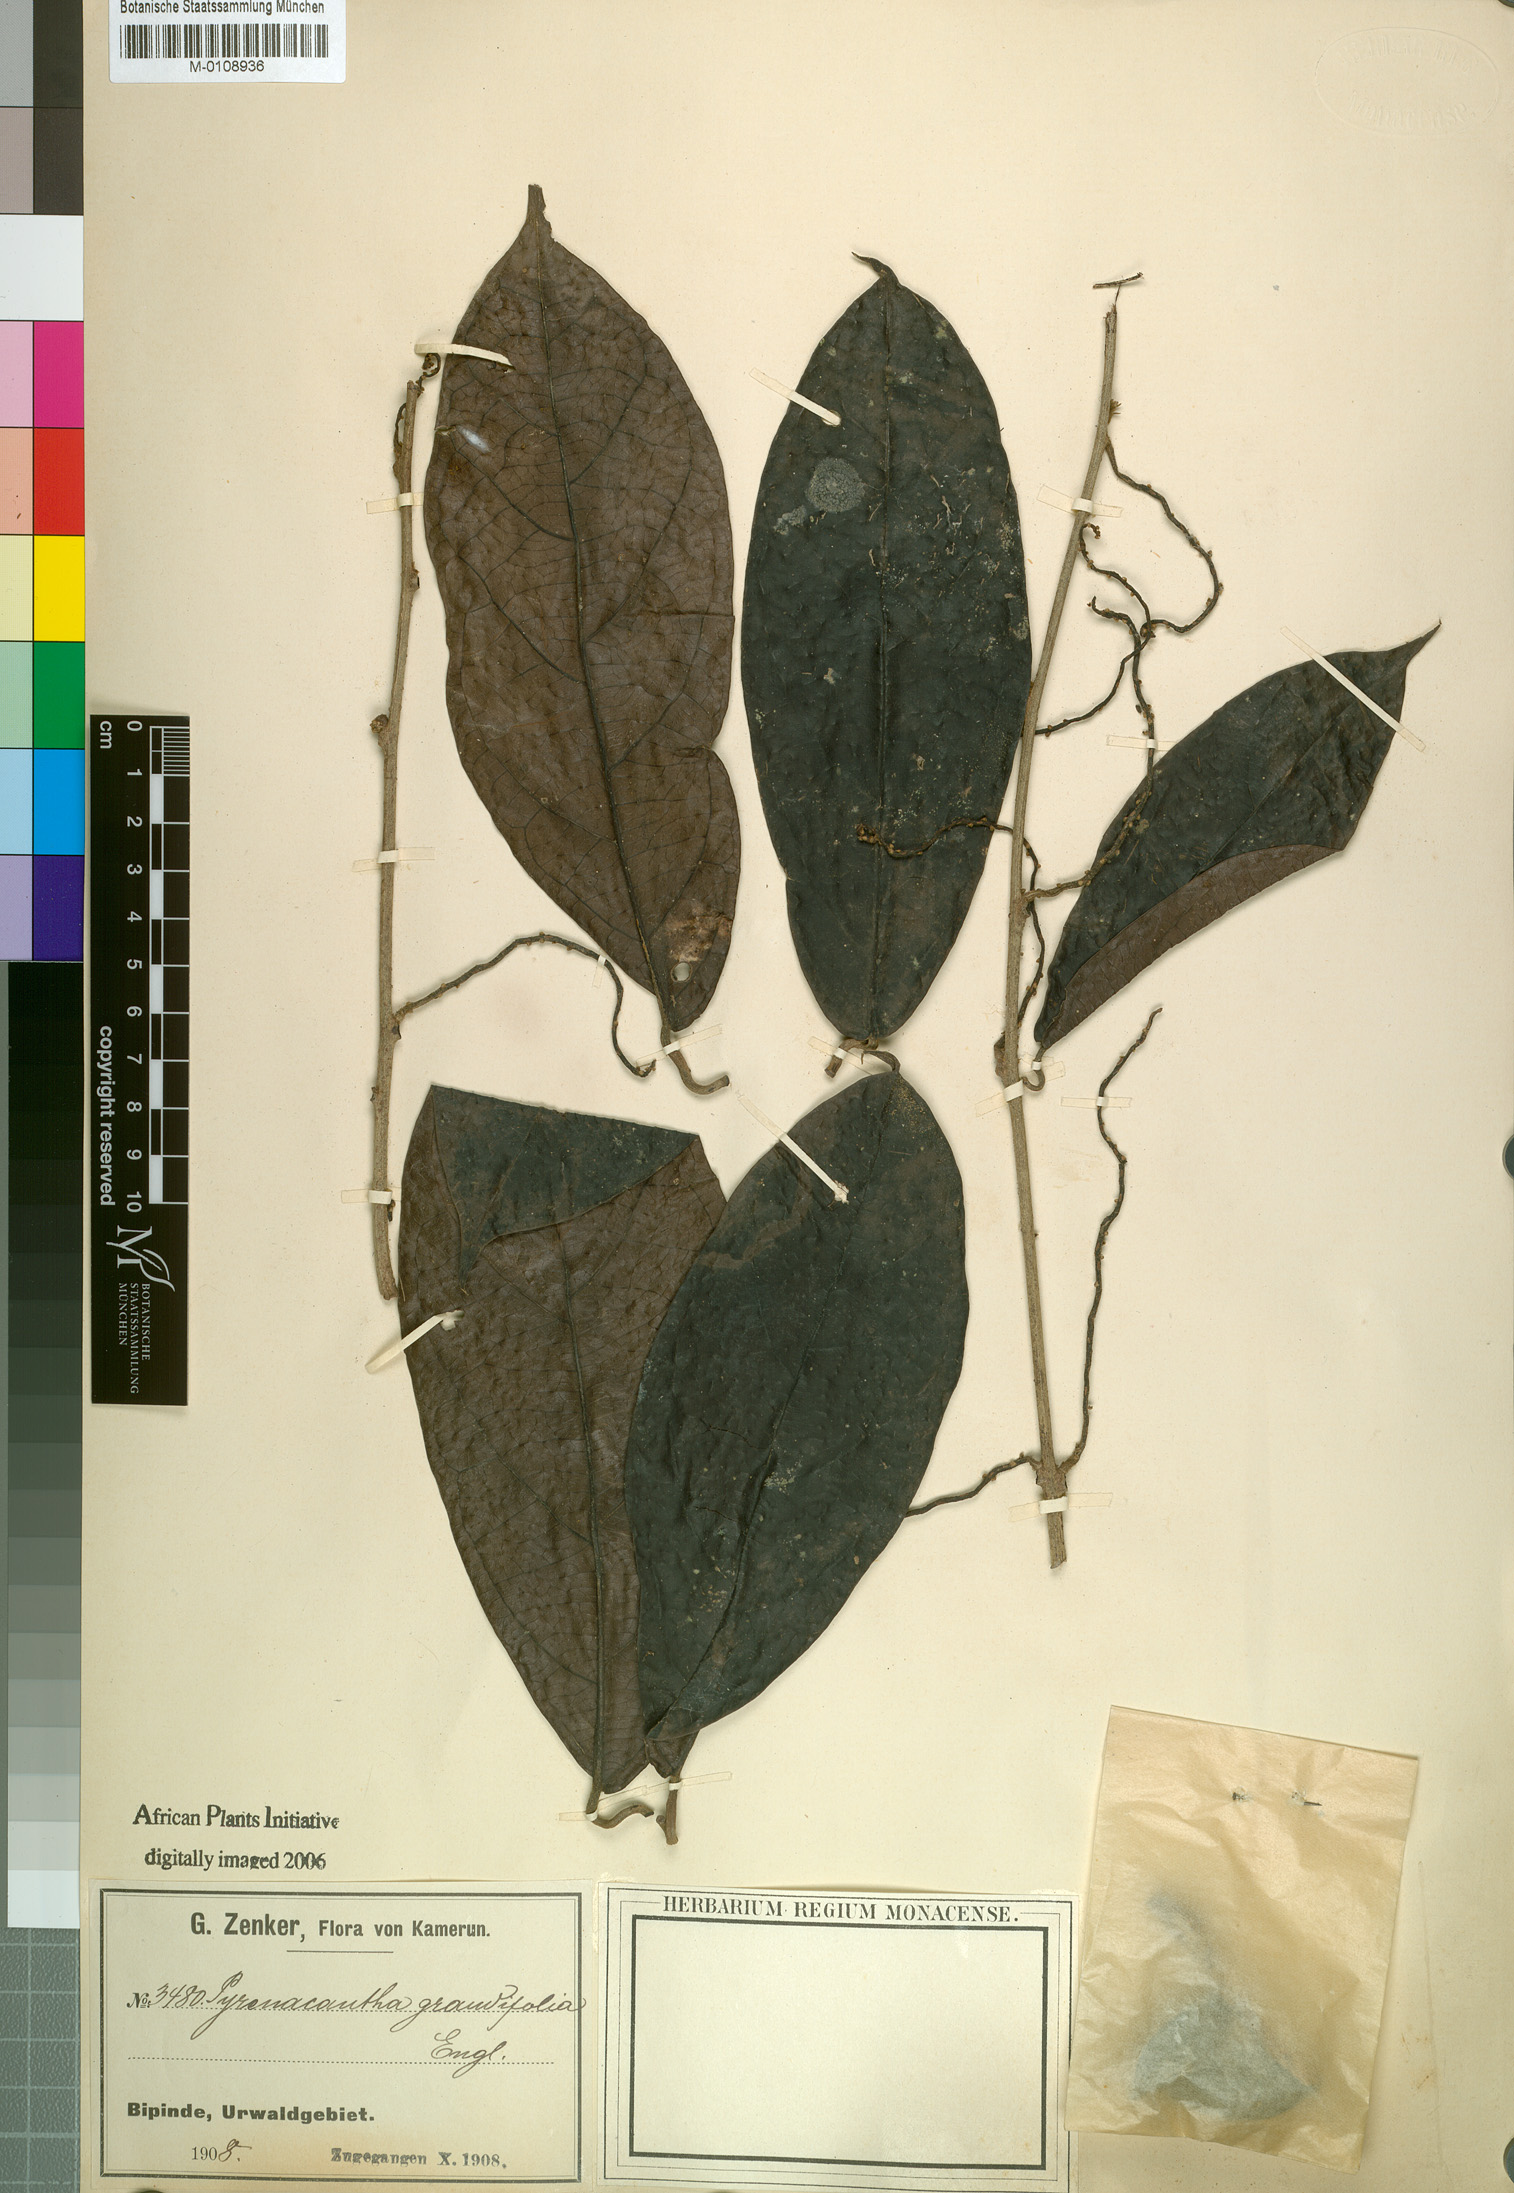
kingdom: Plantae
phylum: Tracheophyta
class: Magnoliopsida
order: Icacinales
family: Icacinaceae
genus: Pyrenacantha
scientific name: Pyrenacantha grandifolia
